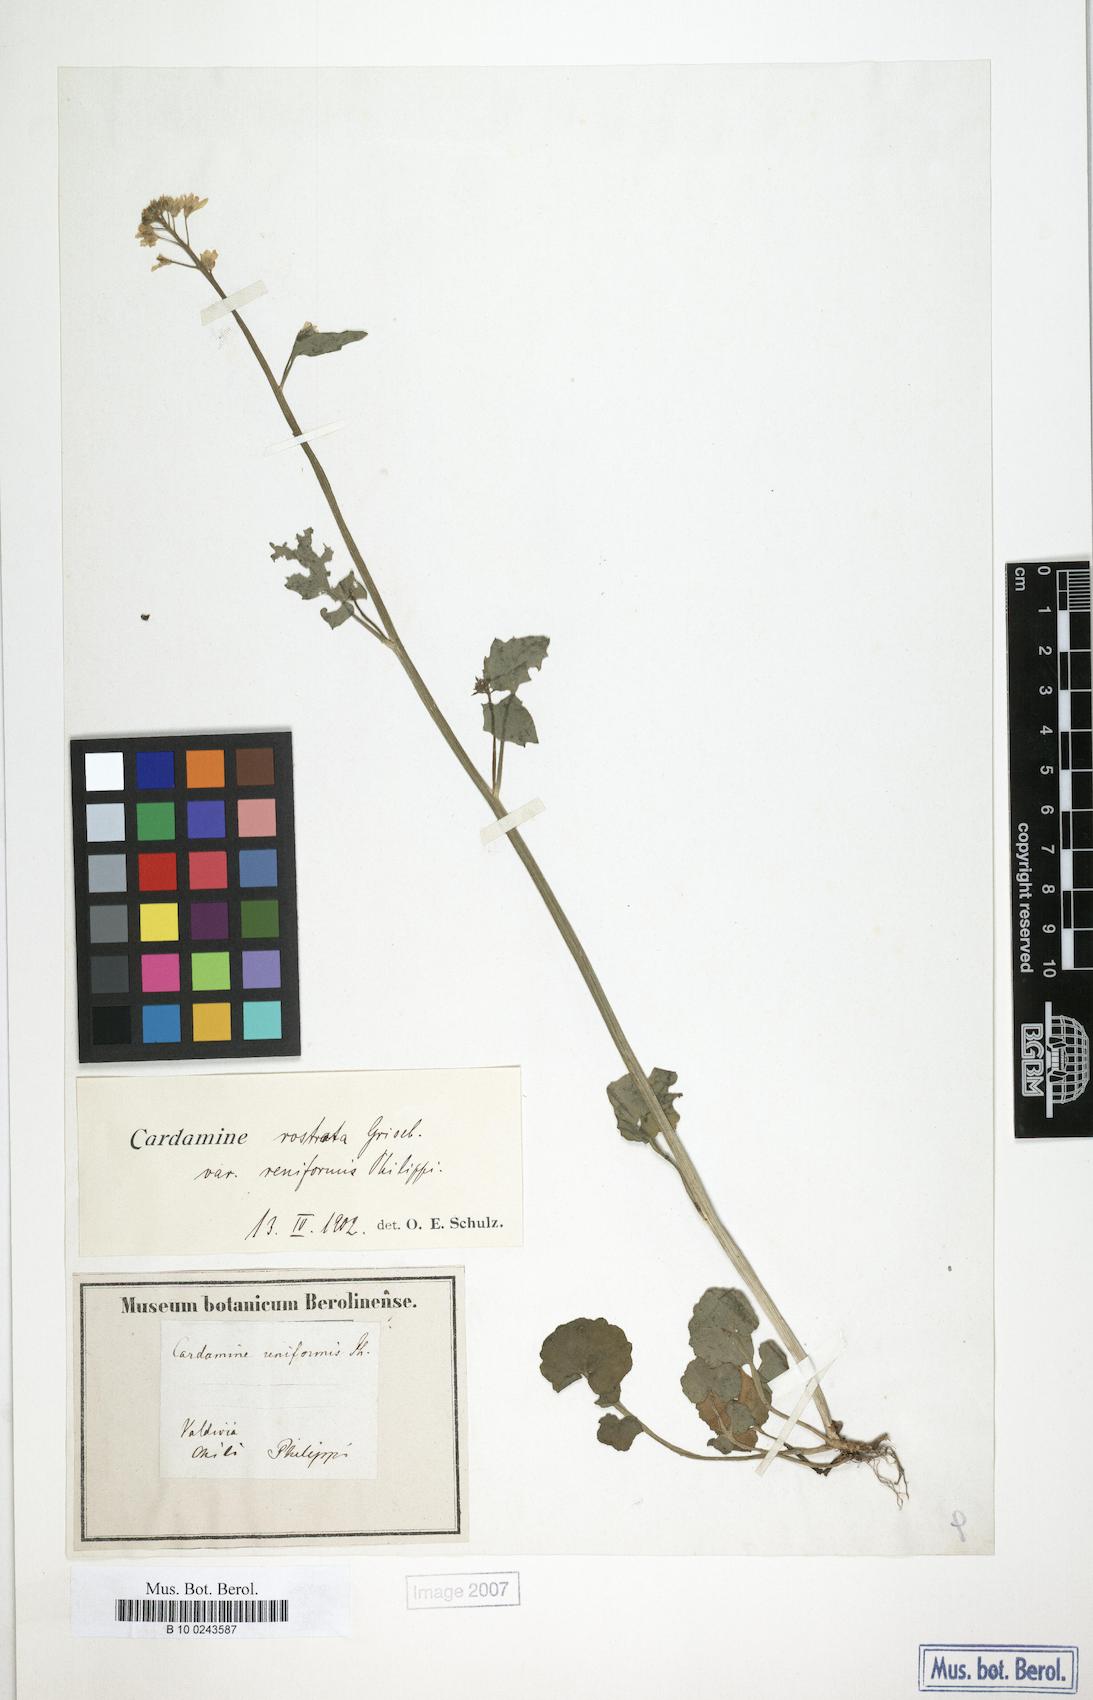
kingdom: Plantae
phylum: Tracheophyta
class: Magnoliopsida
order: Brassicales
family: Brassicaceae
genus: Cardamine
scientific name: Cardamine rostrata
